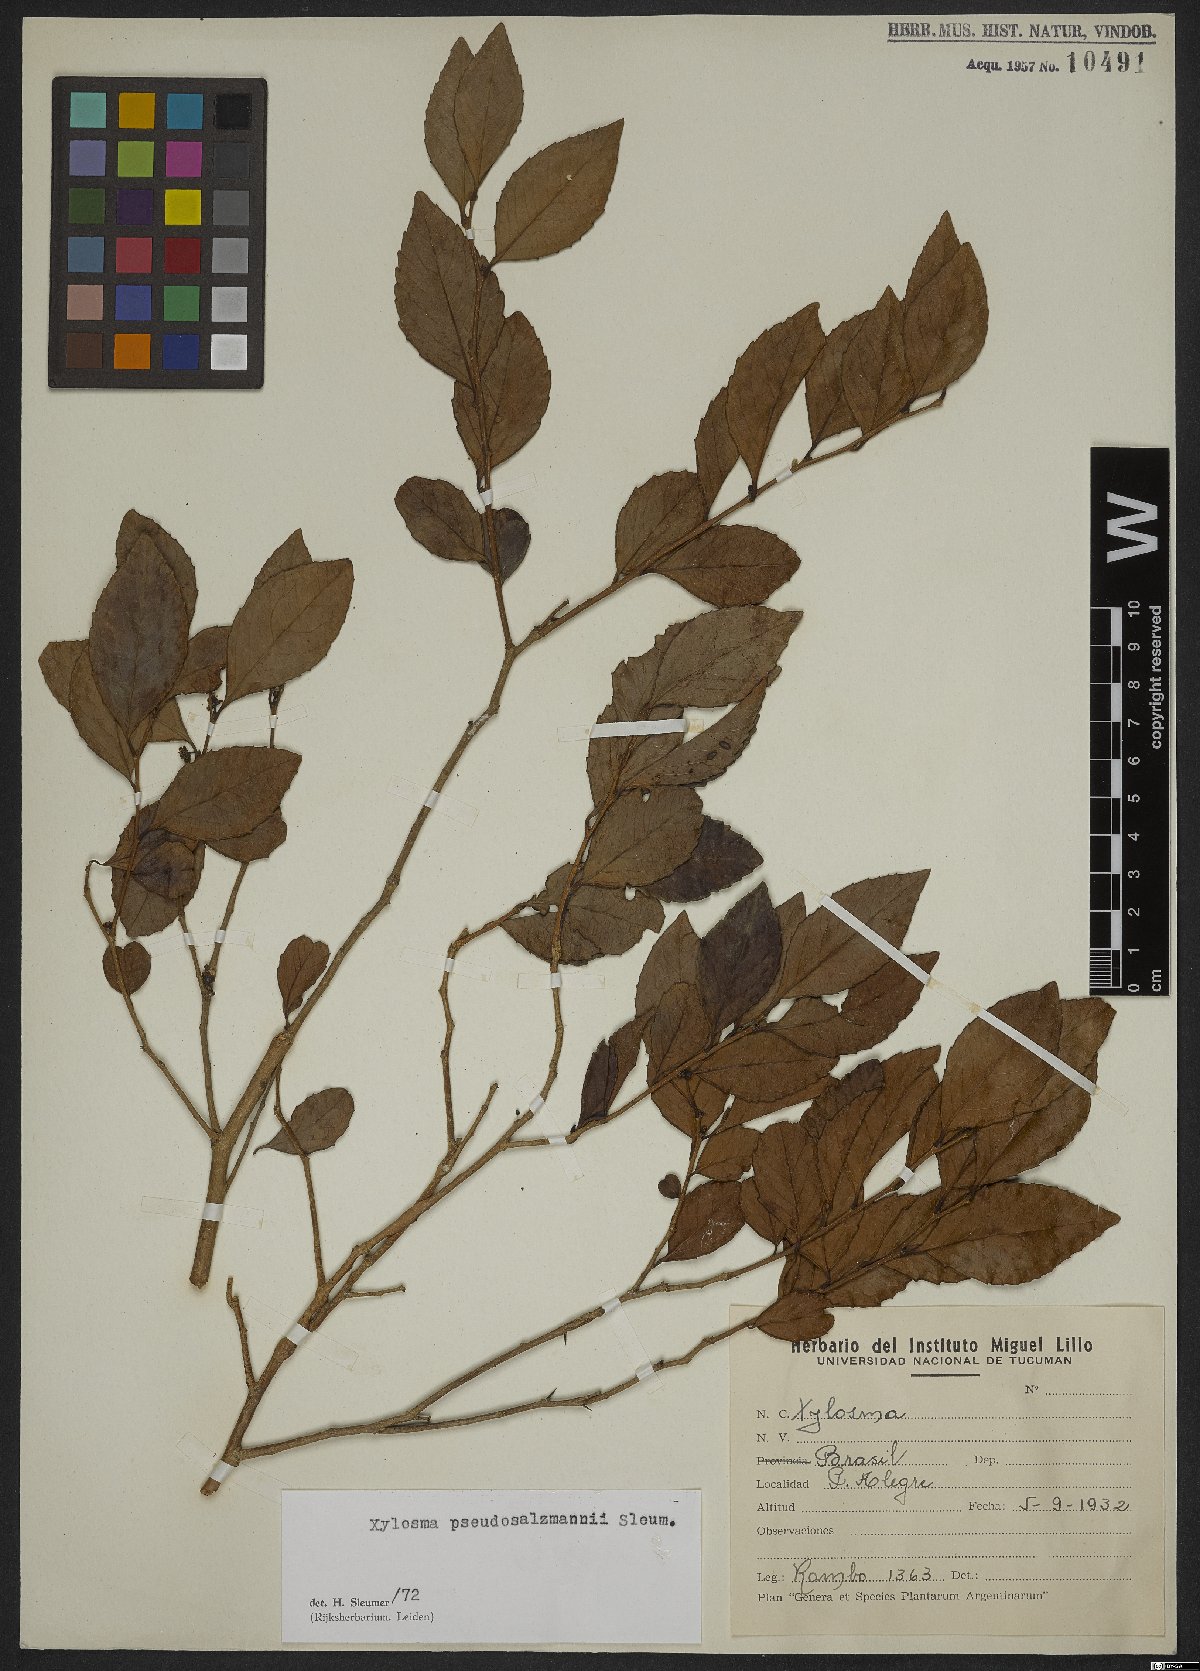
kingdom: Plantae
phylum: Tracheophyta
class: Magnoliopsida
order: Malpighiales
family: Salicaceae
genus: Xylosma
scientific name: Xylosma pseudosalzmannii
